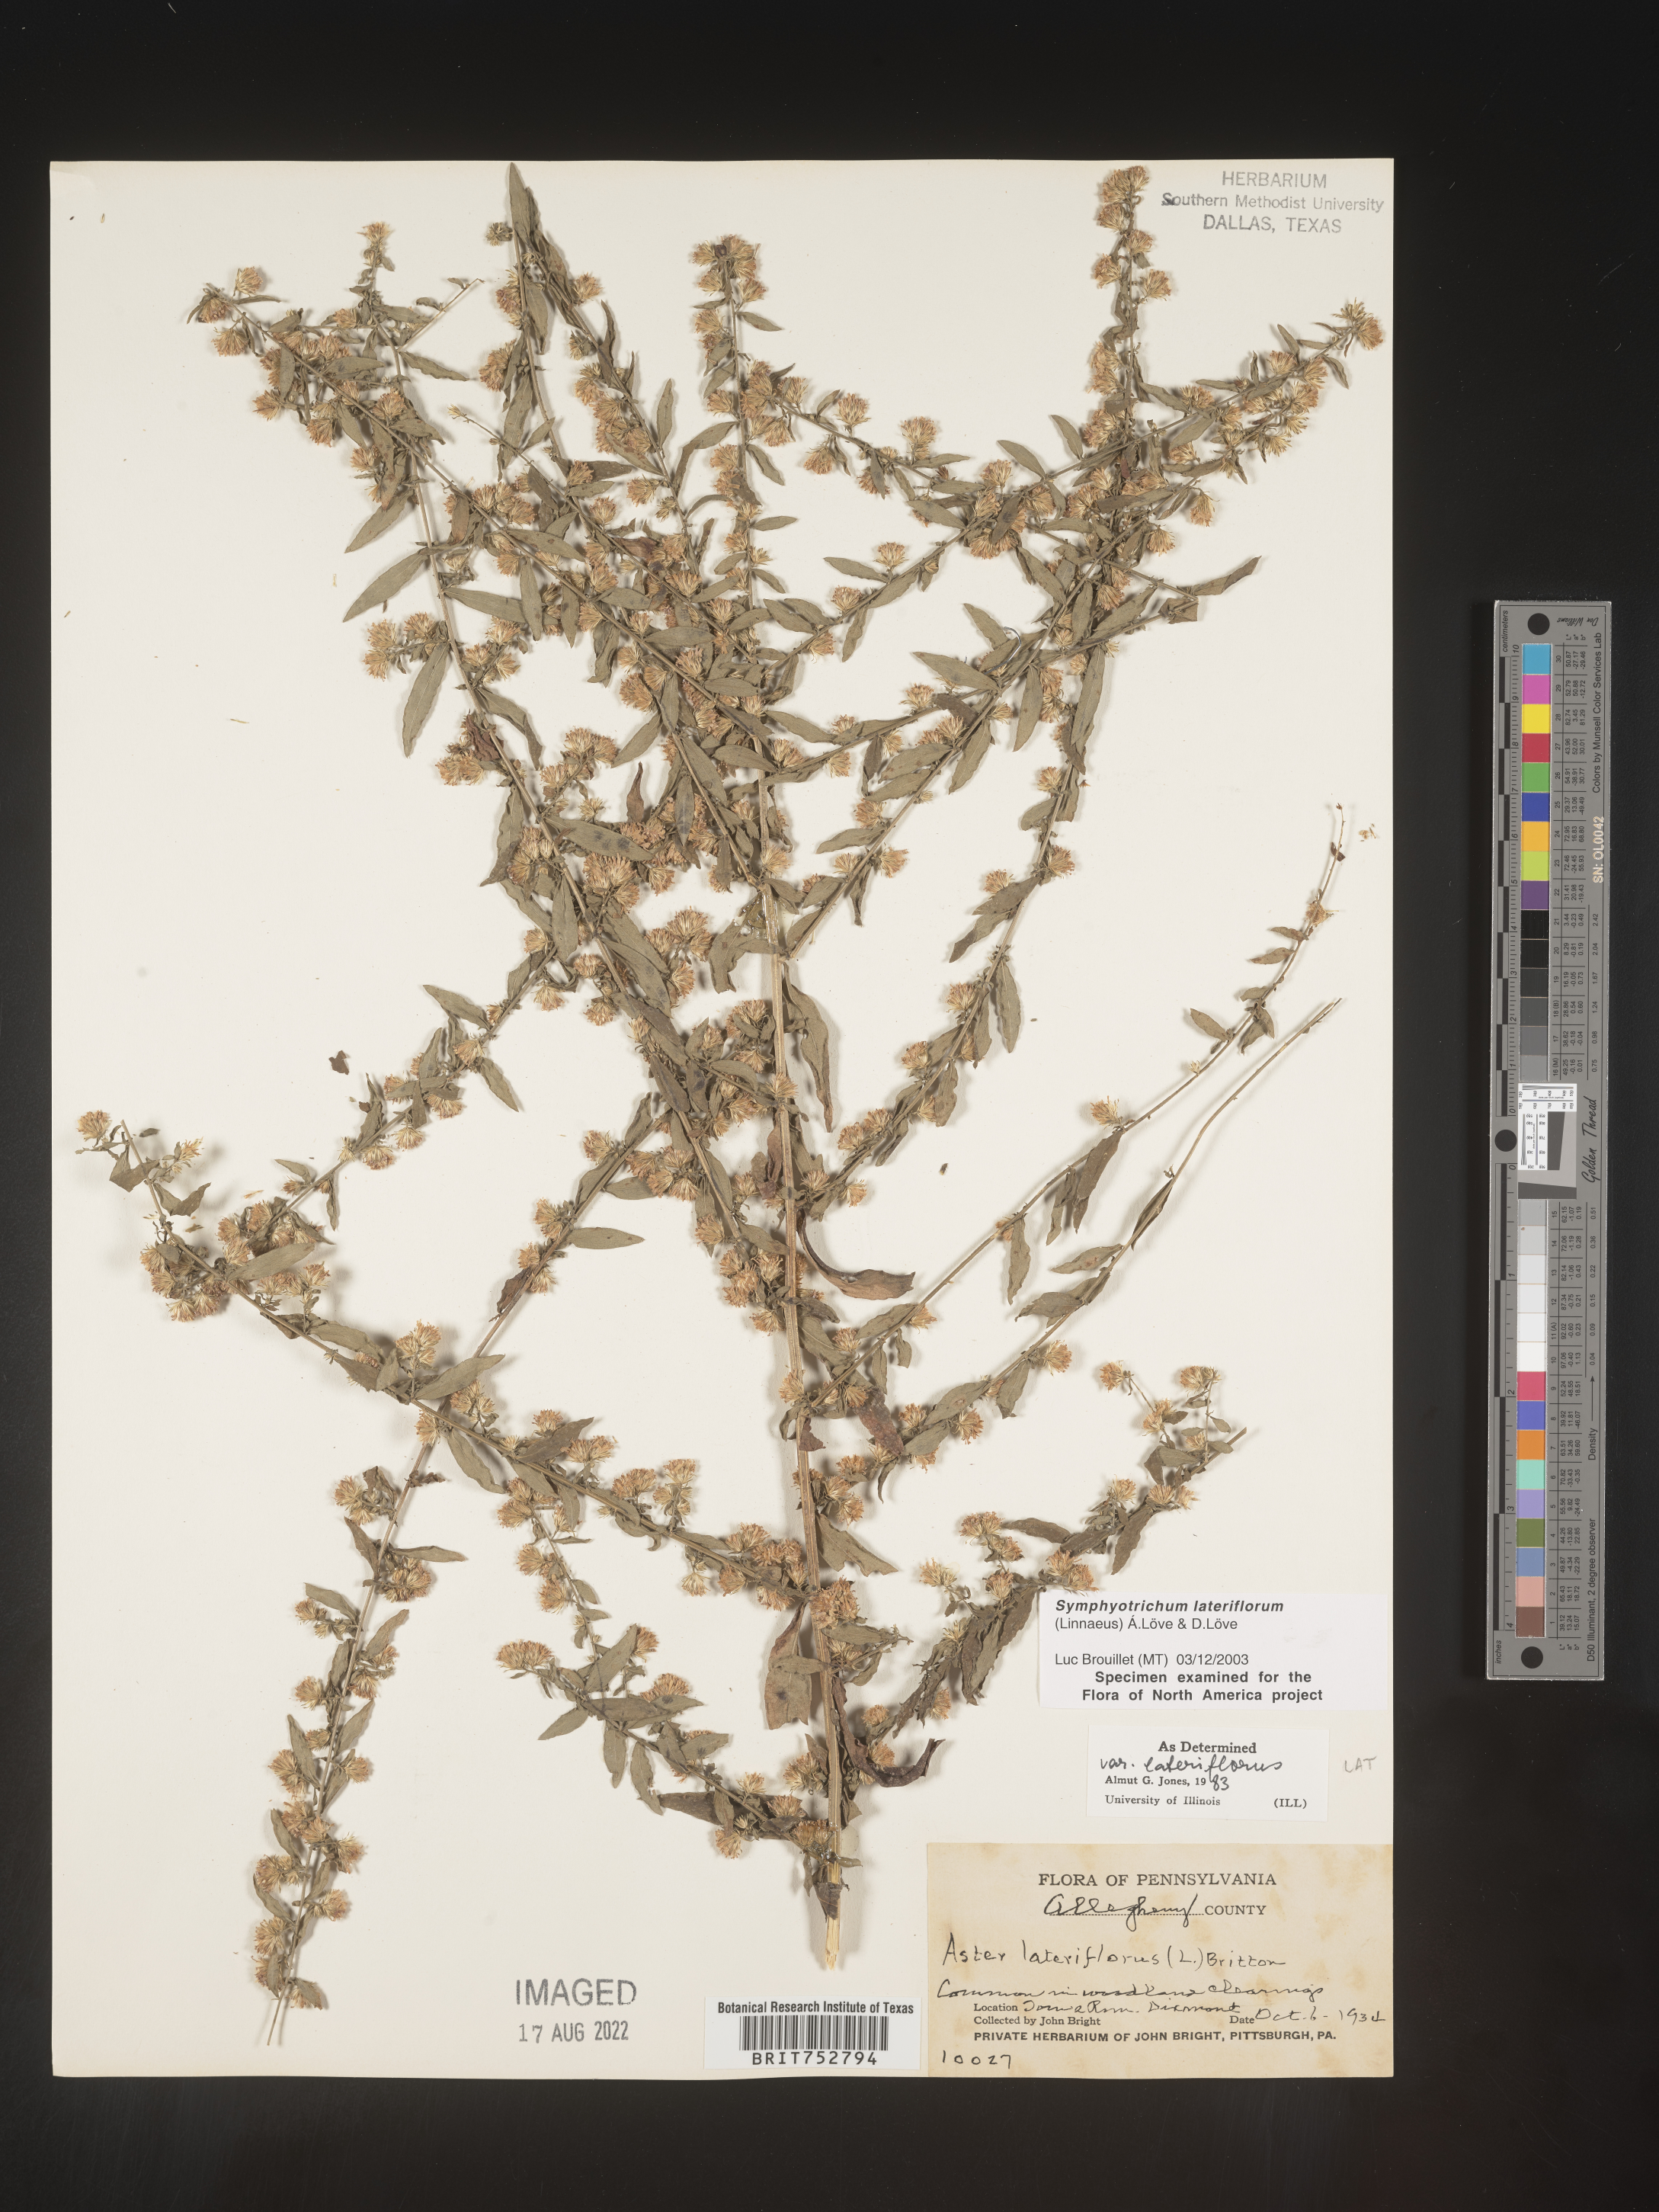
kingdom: Plantae
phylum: Tracheophyta
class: Magnoliopsida
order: Asterales
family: Asteraceae
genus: Symphyotrichum
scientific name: Symphyotrichum lateriflorum
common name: Calico aster
